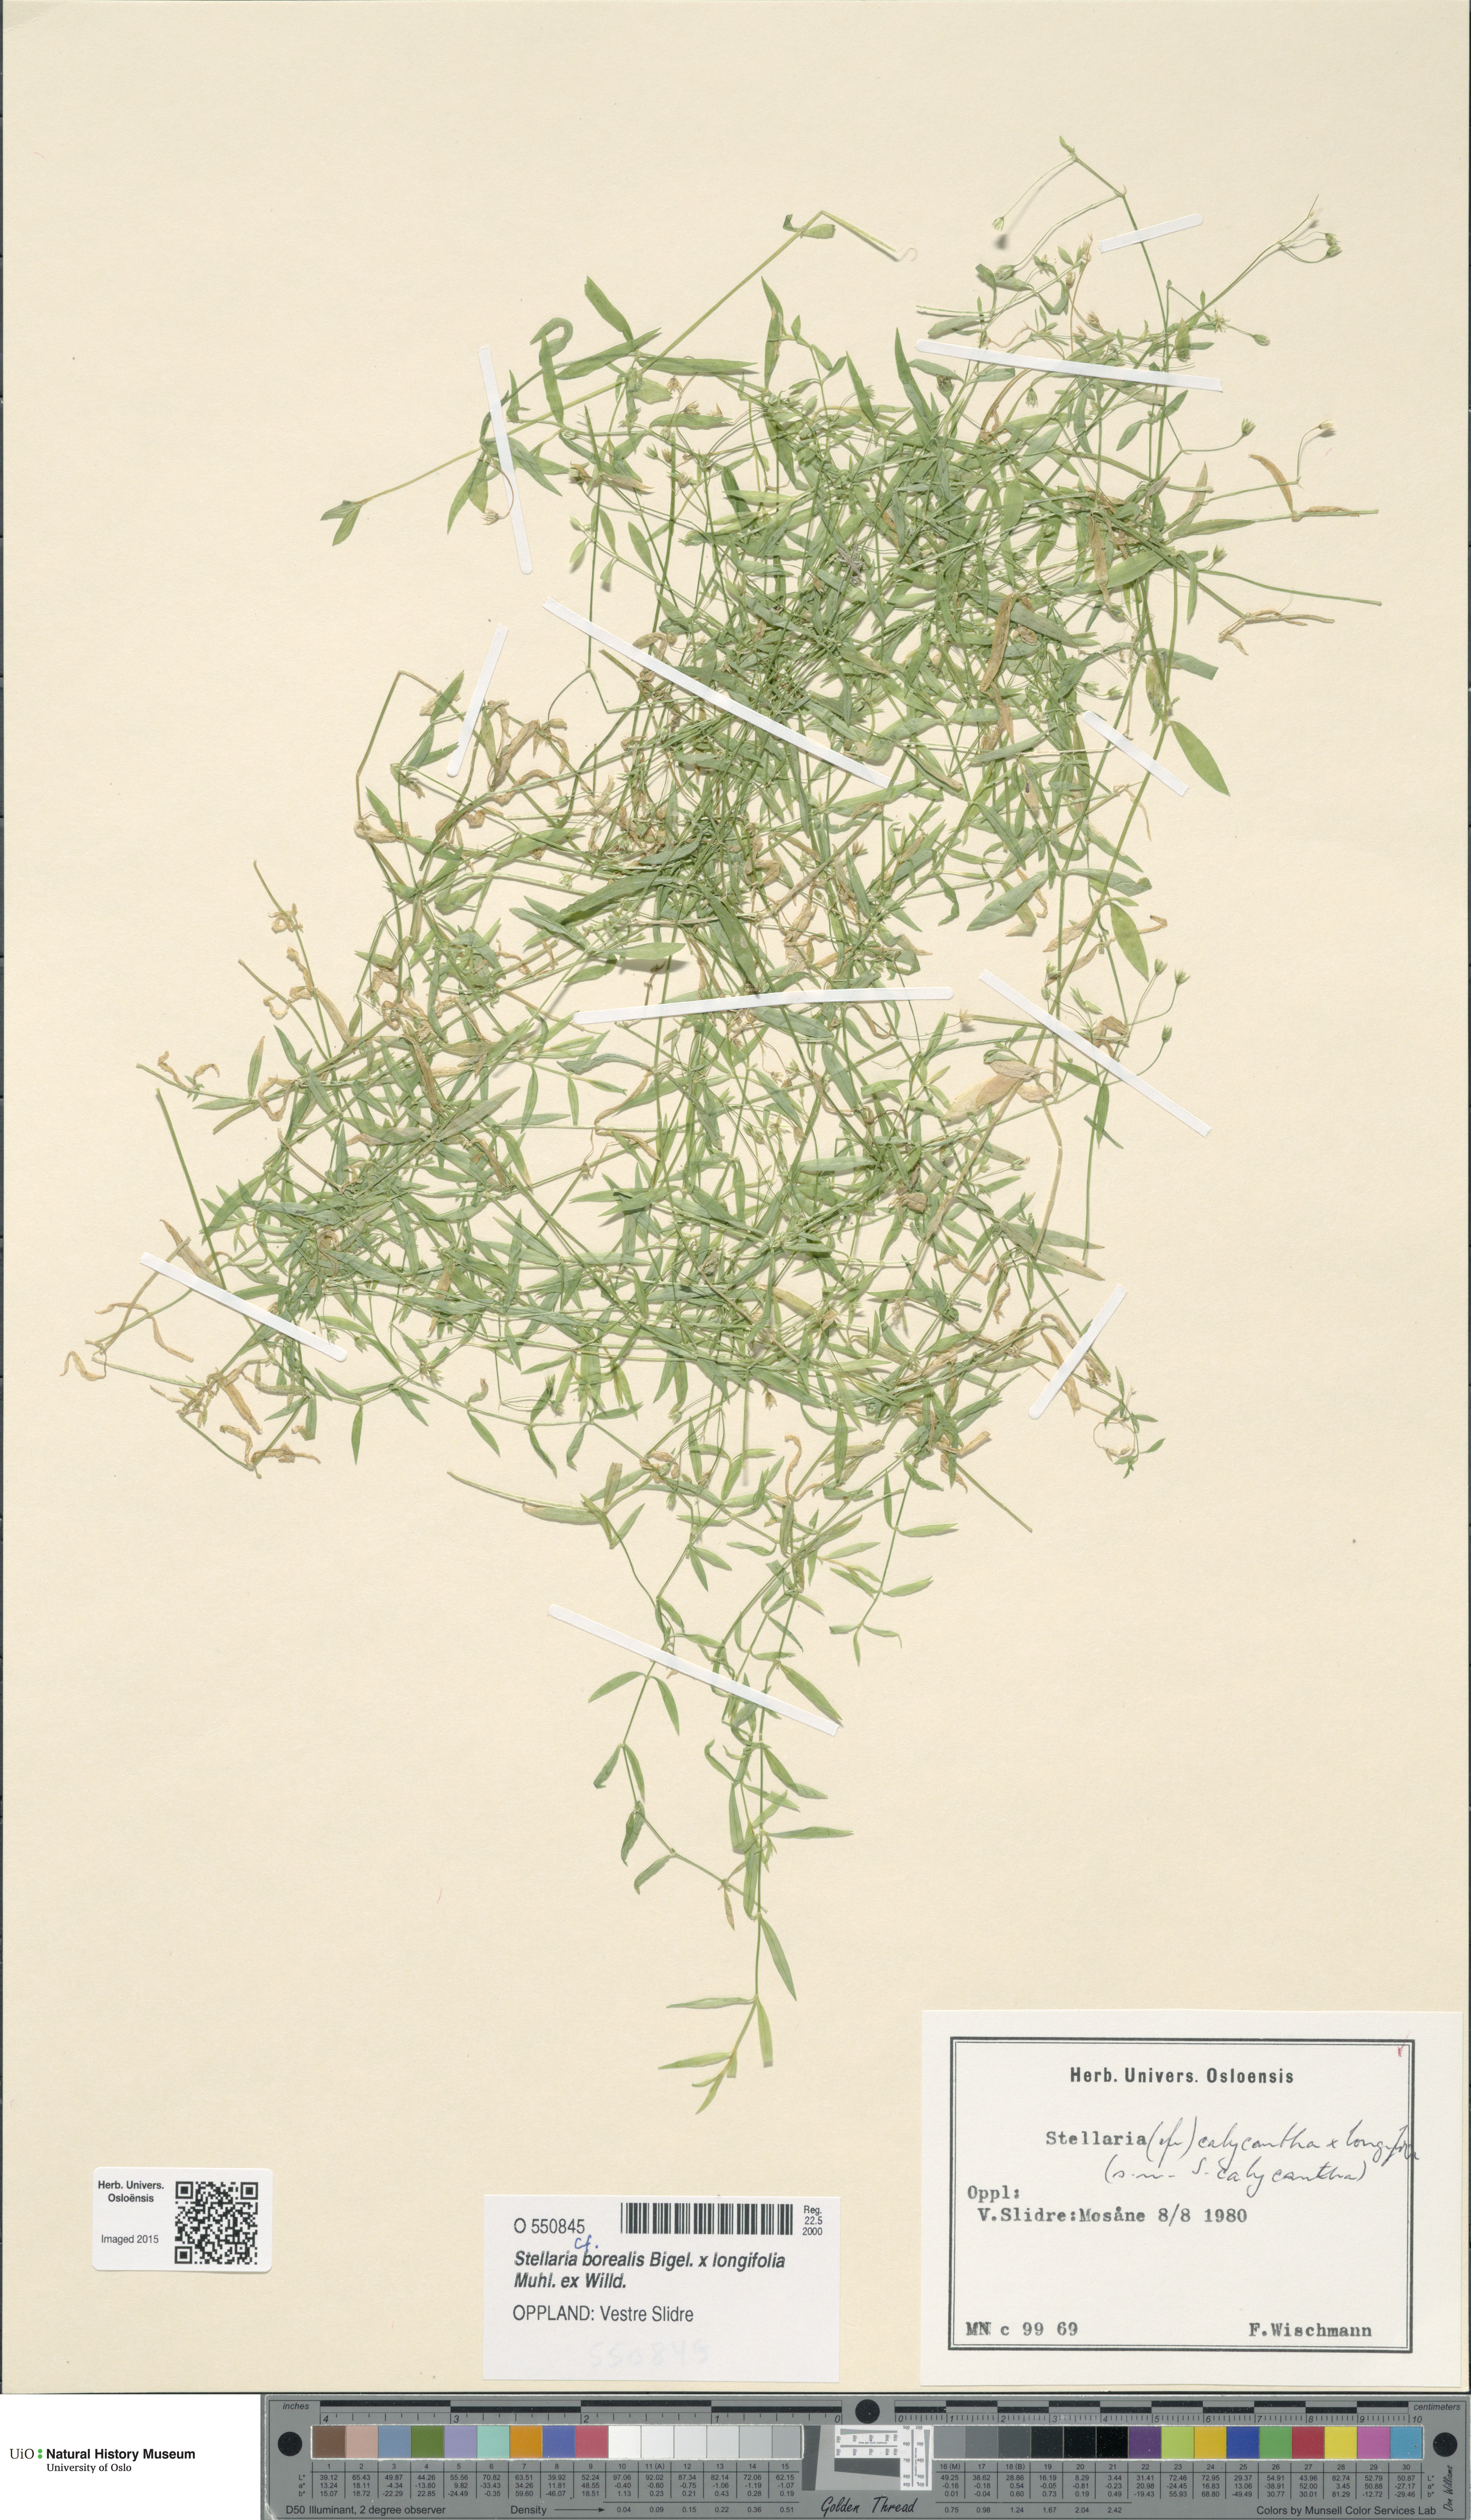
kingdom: Plantae
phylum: Tracheophyta
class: Magnoliopsida
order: Caryophyllales
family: Caryophyllaceae
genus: Stellaria
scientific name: Stellaria
